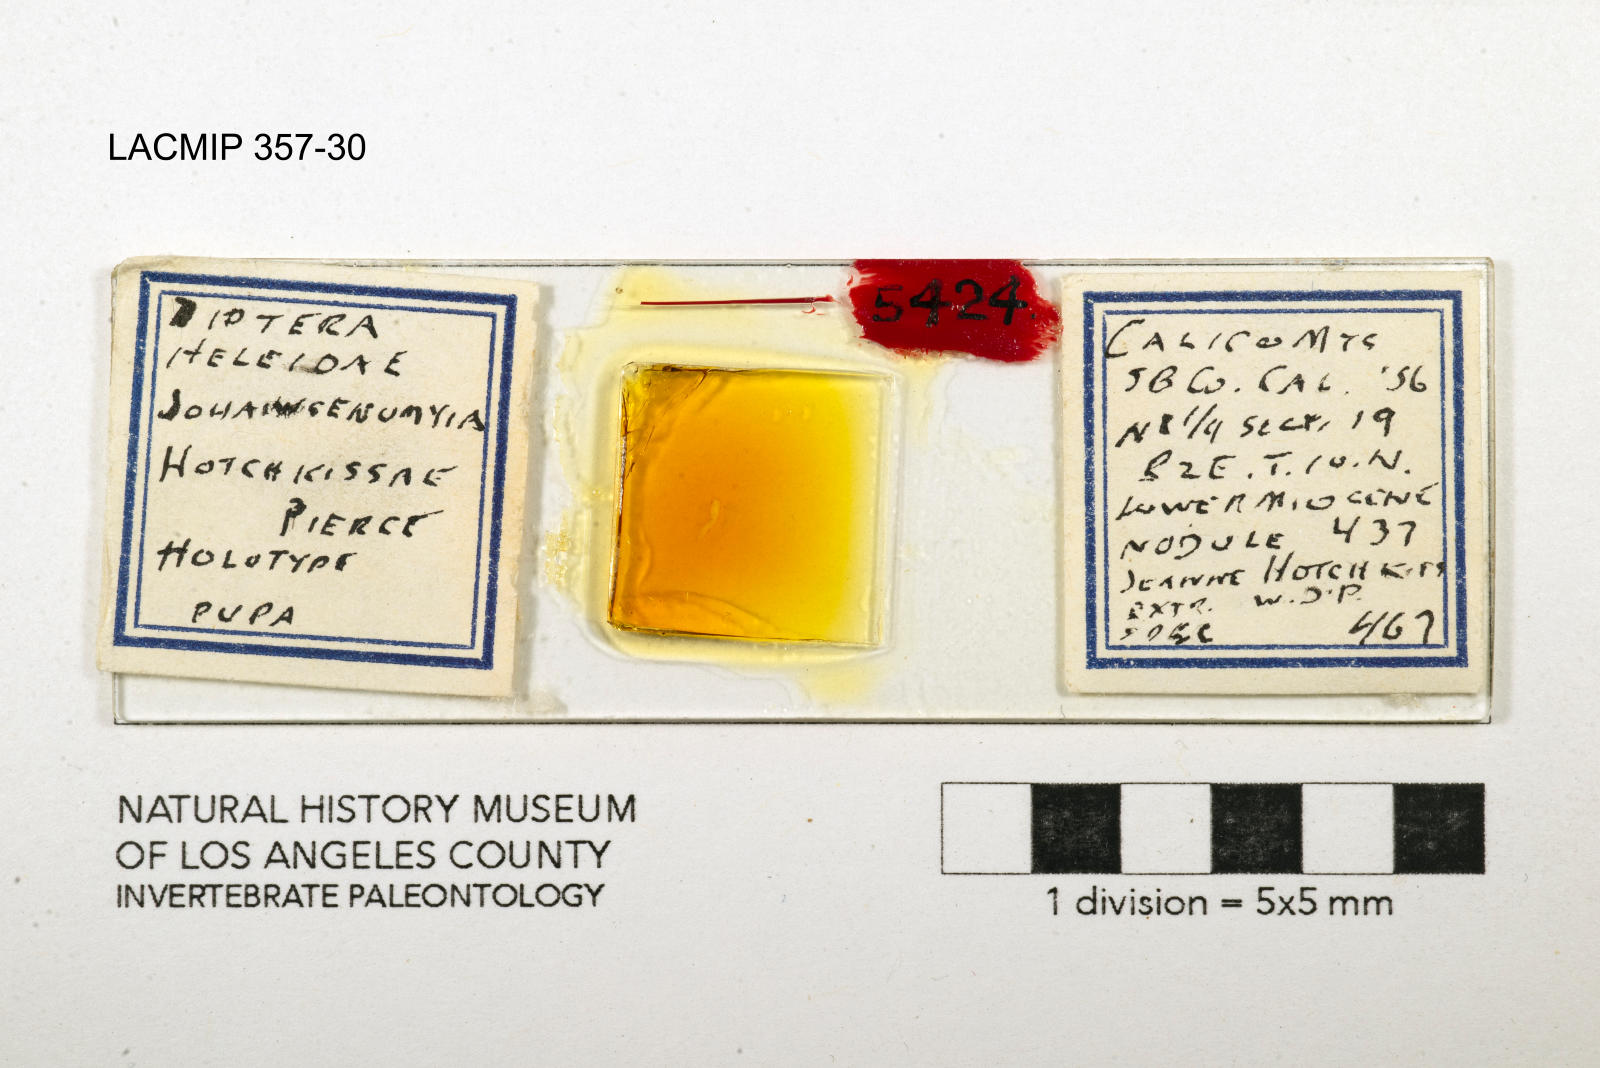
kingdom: Animalia
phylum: Arthropoda
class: Insecta
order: Diptera
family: Ceratopogonidae
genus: Johannsenomyia
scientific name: Johannsenomyia
